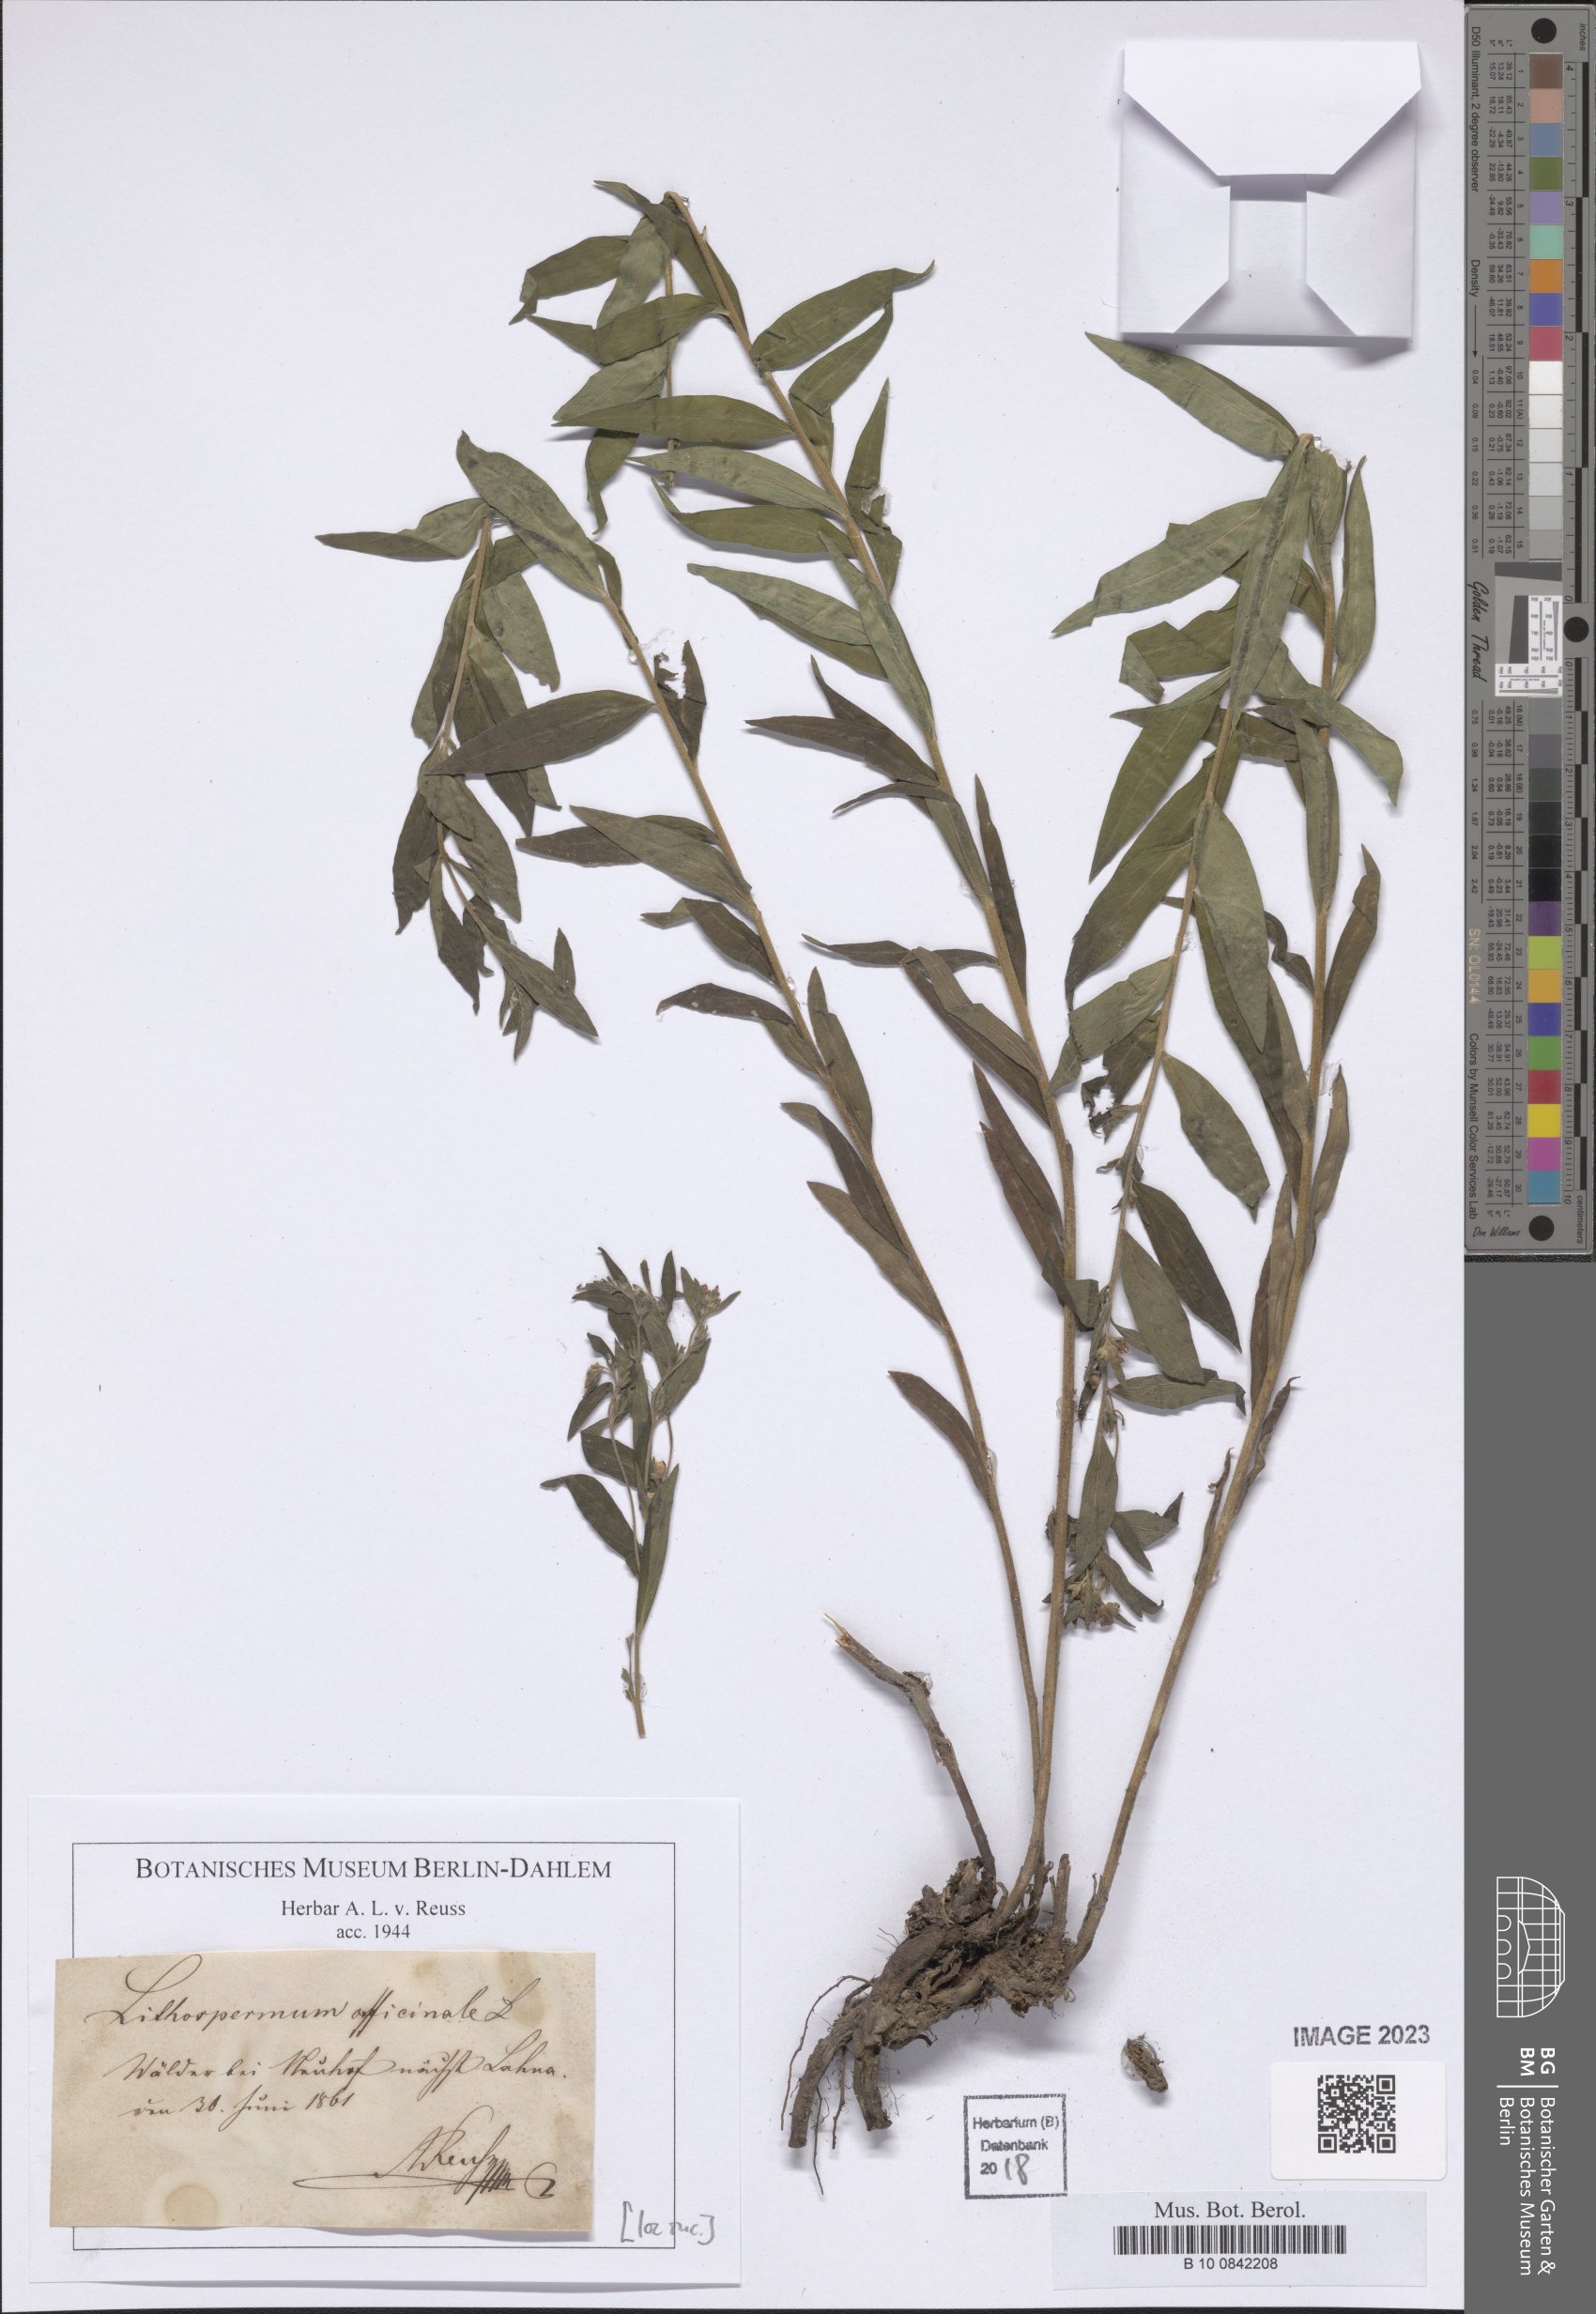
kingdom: Plantae
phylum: Tracheophyta
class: Magnoliopsida
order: Boraginales
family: Boraginaceae
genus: Lithospermum
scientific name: Lithospermum officinale
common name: Common gromwell
